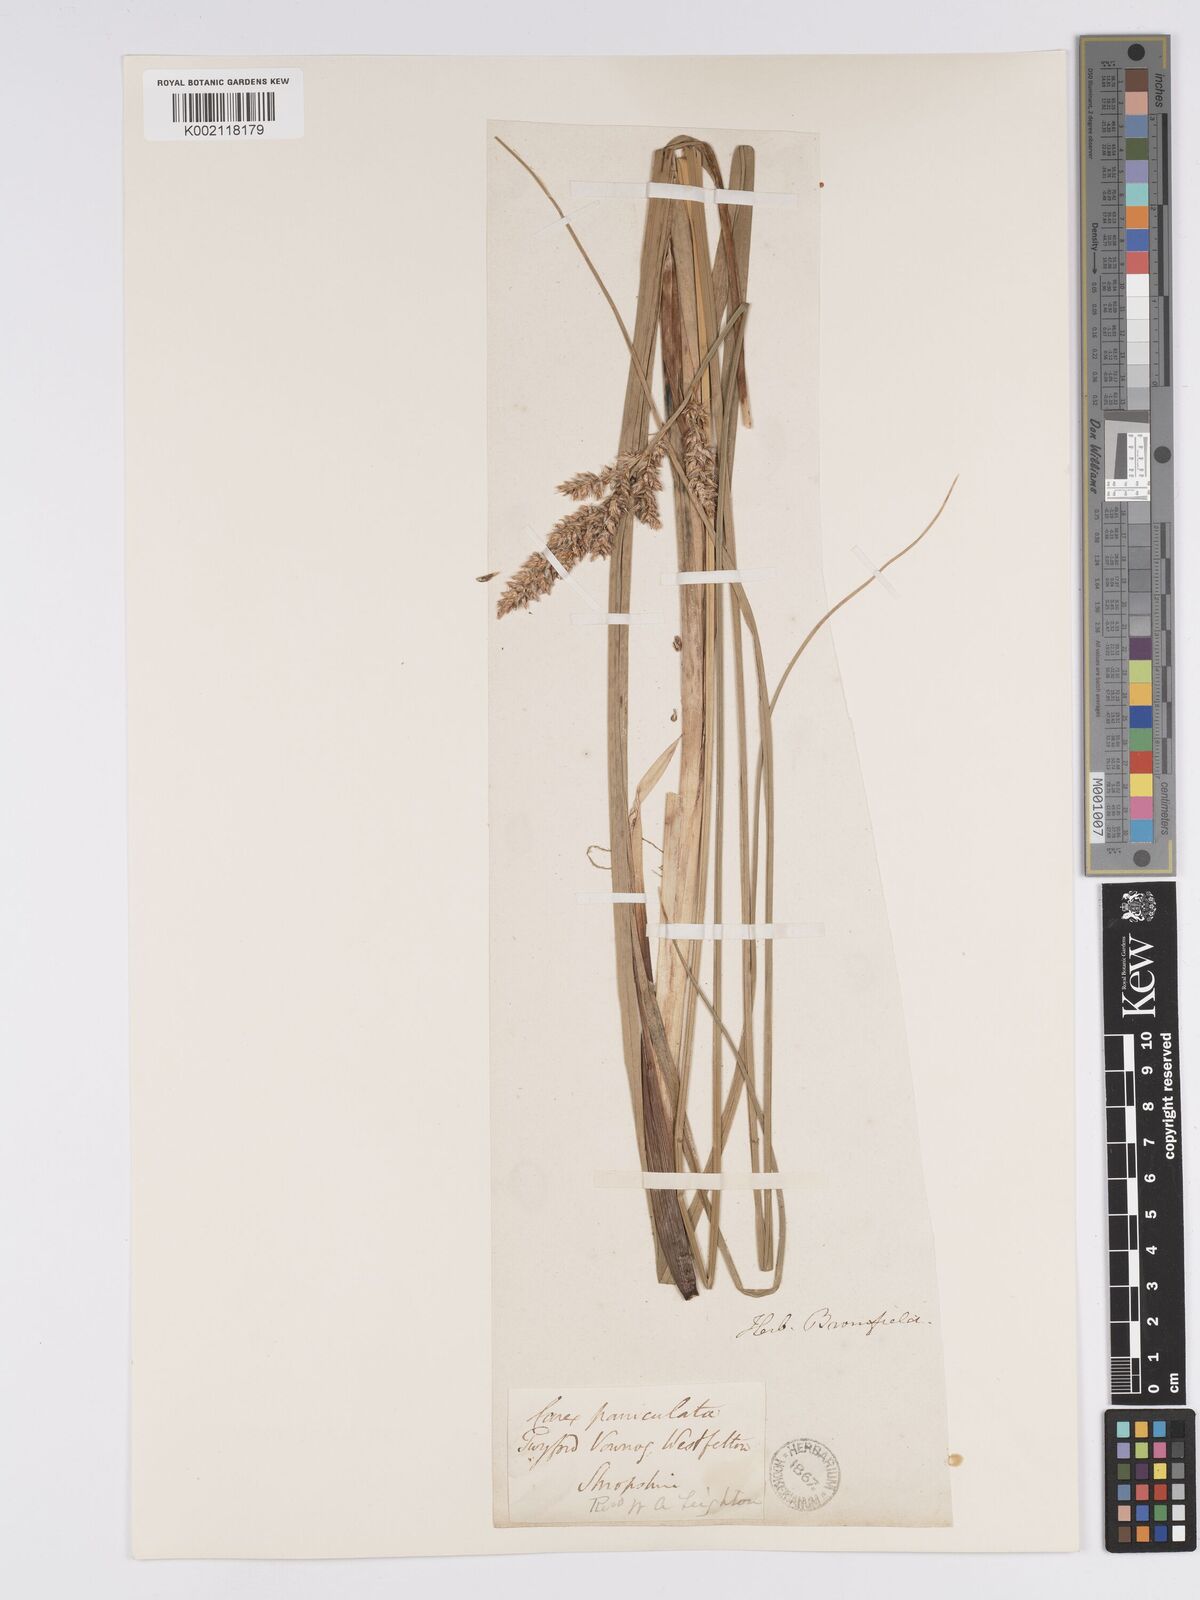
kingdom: Plantae
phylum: Tracheophyta
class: Liliopsida
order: Poales
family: Cyperaceae
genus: Carex
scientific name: Carex paniculata
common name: Greater tussock-sedge
